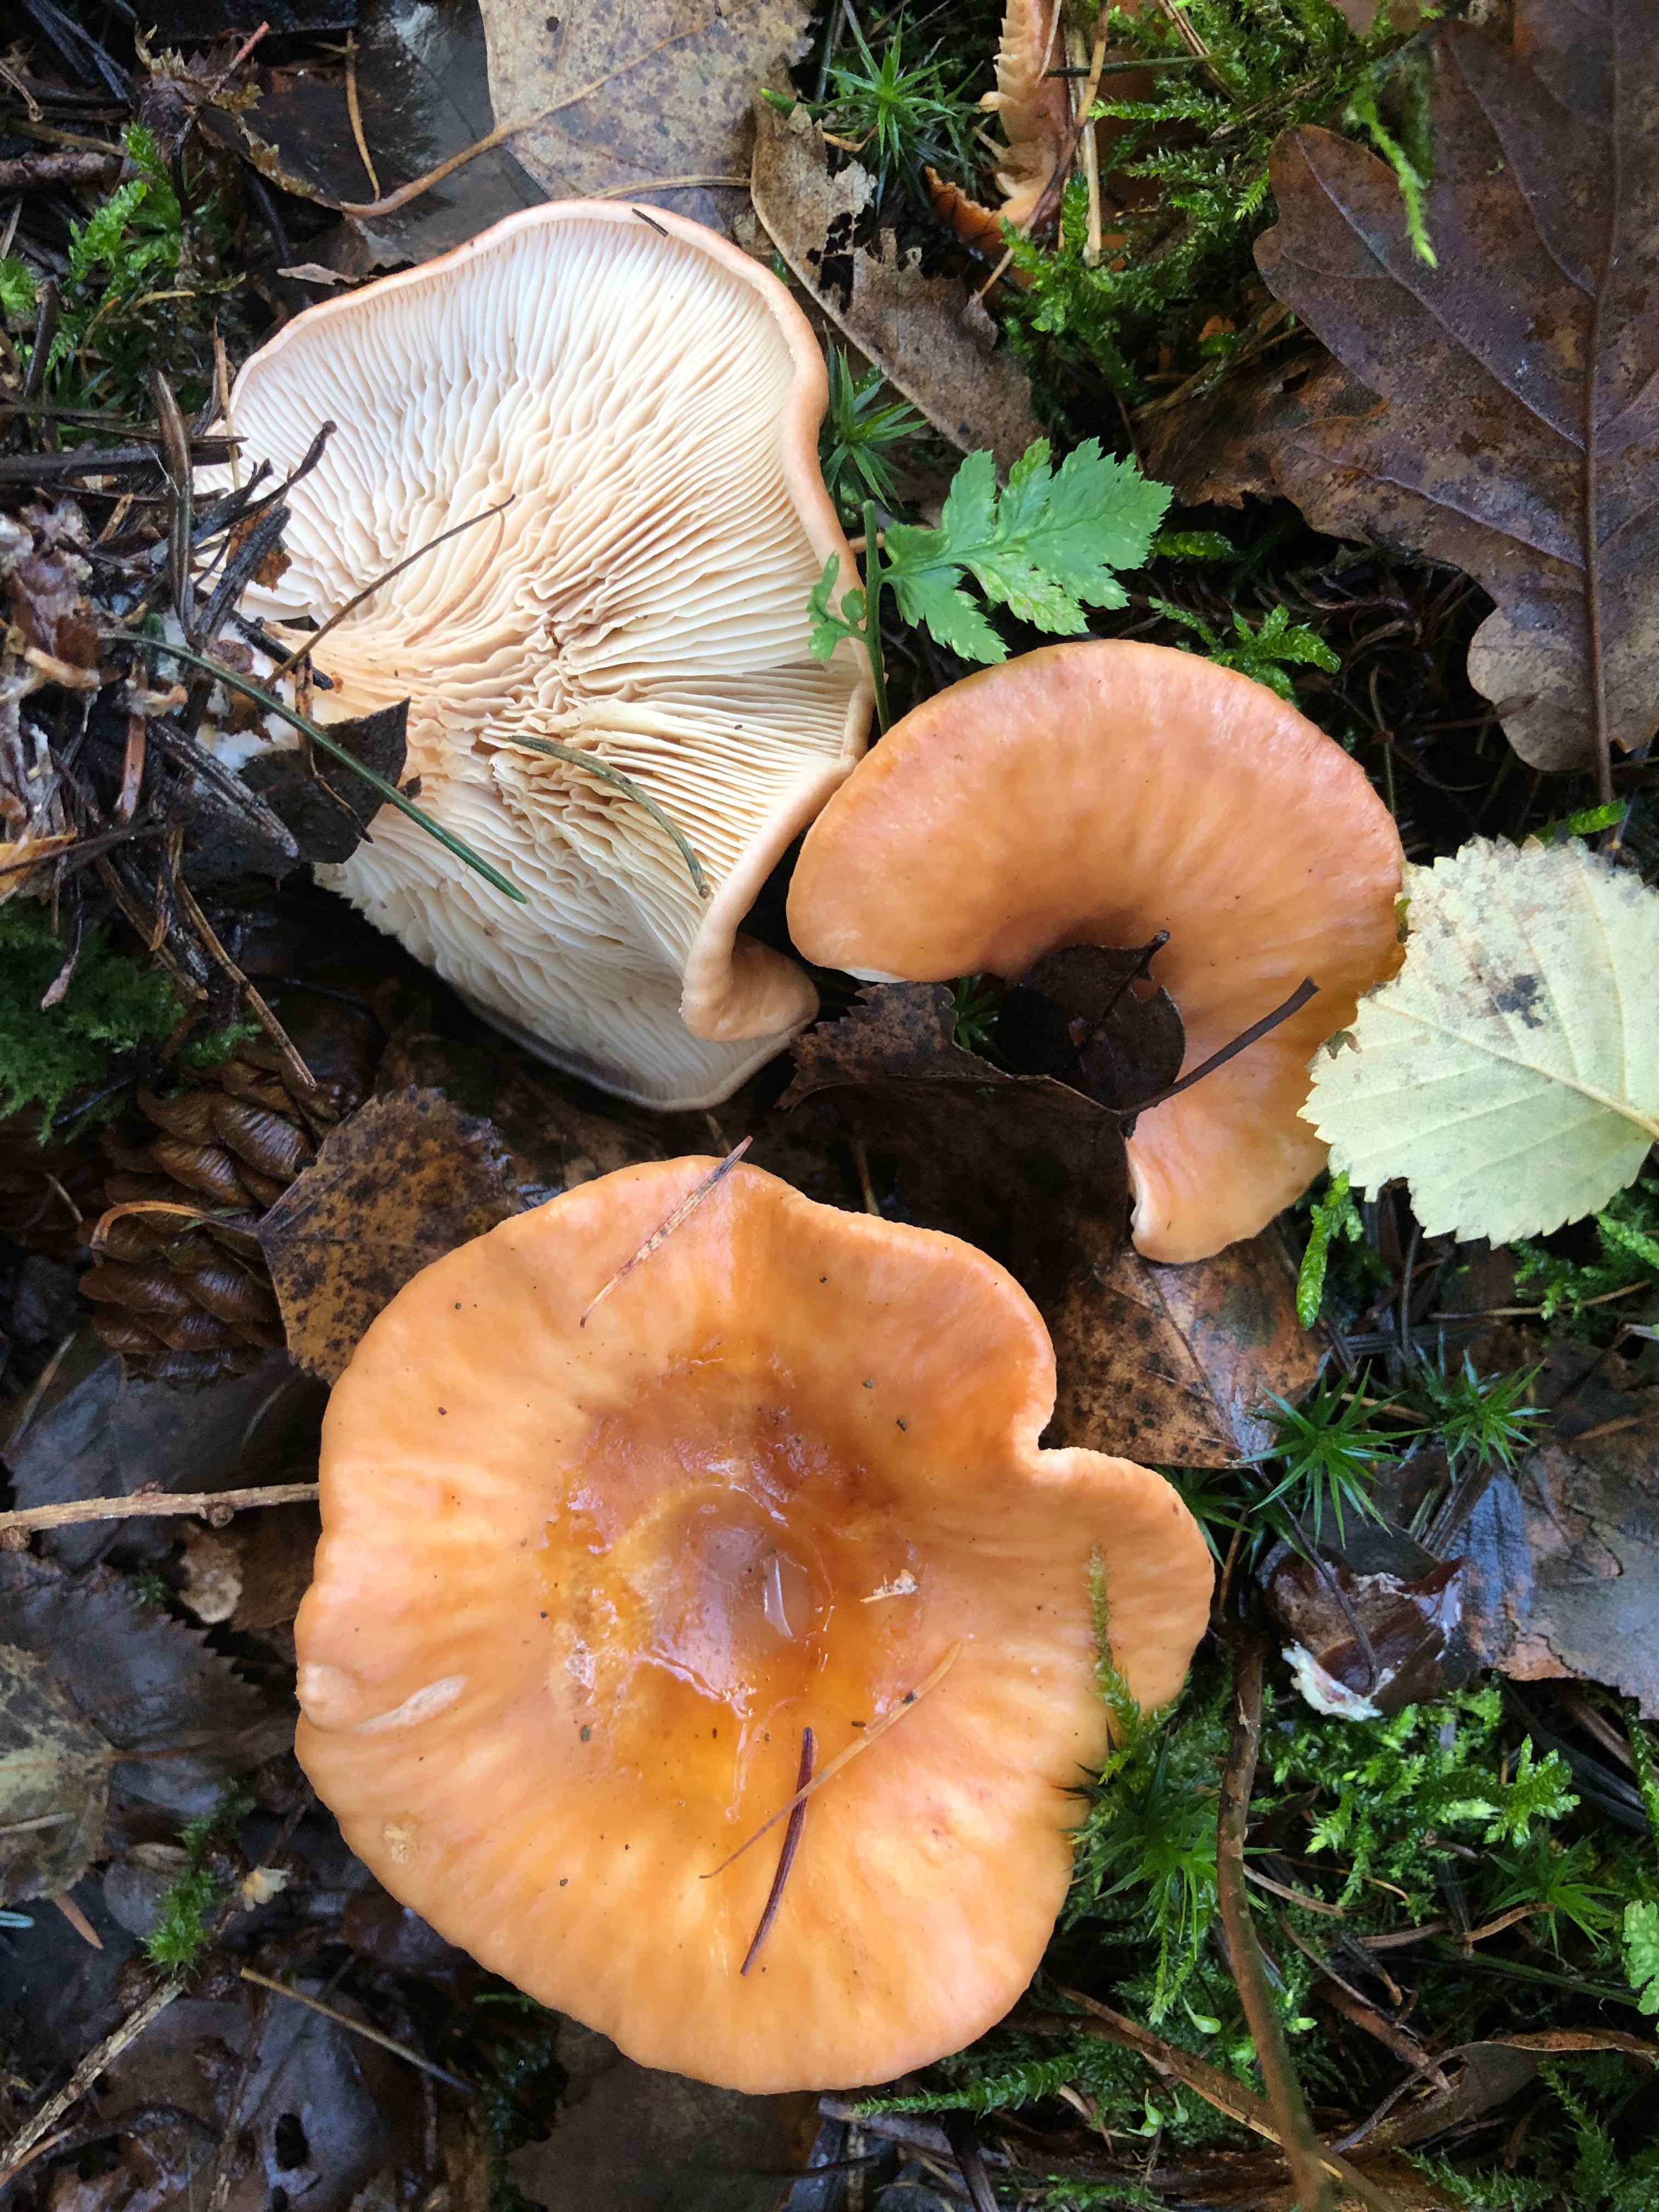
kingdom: Fungi
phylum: Basidiomycota
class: Agaricomycetes
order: Agaricales
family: Tricholomataceae
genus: Paralepista
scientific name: Paralepista flaccida
